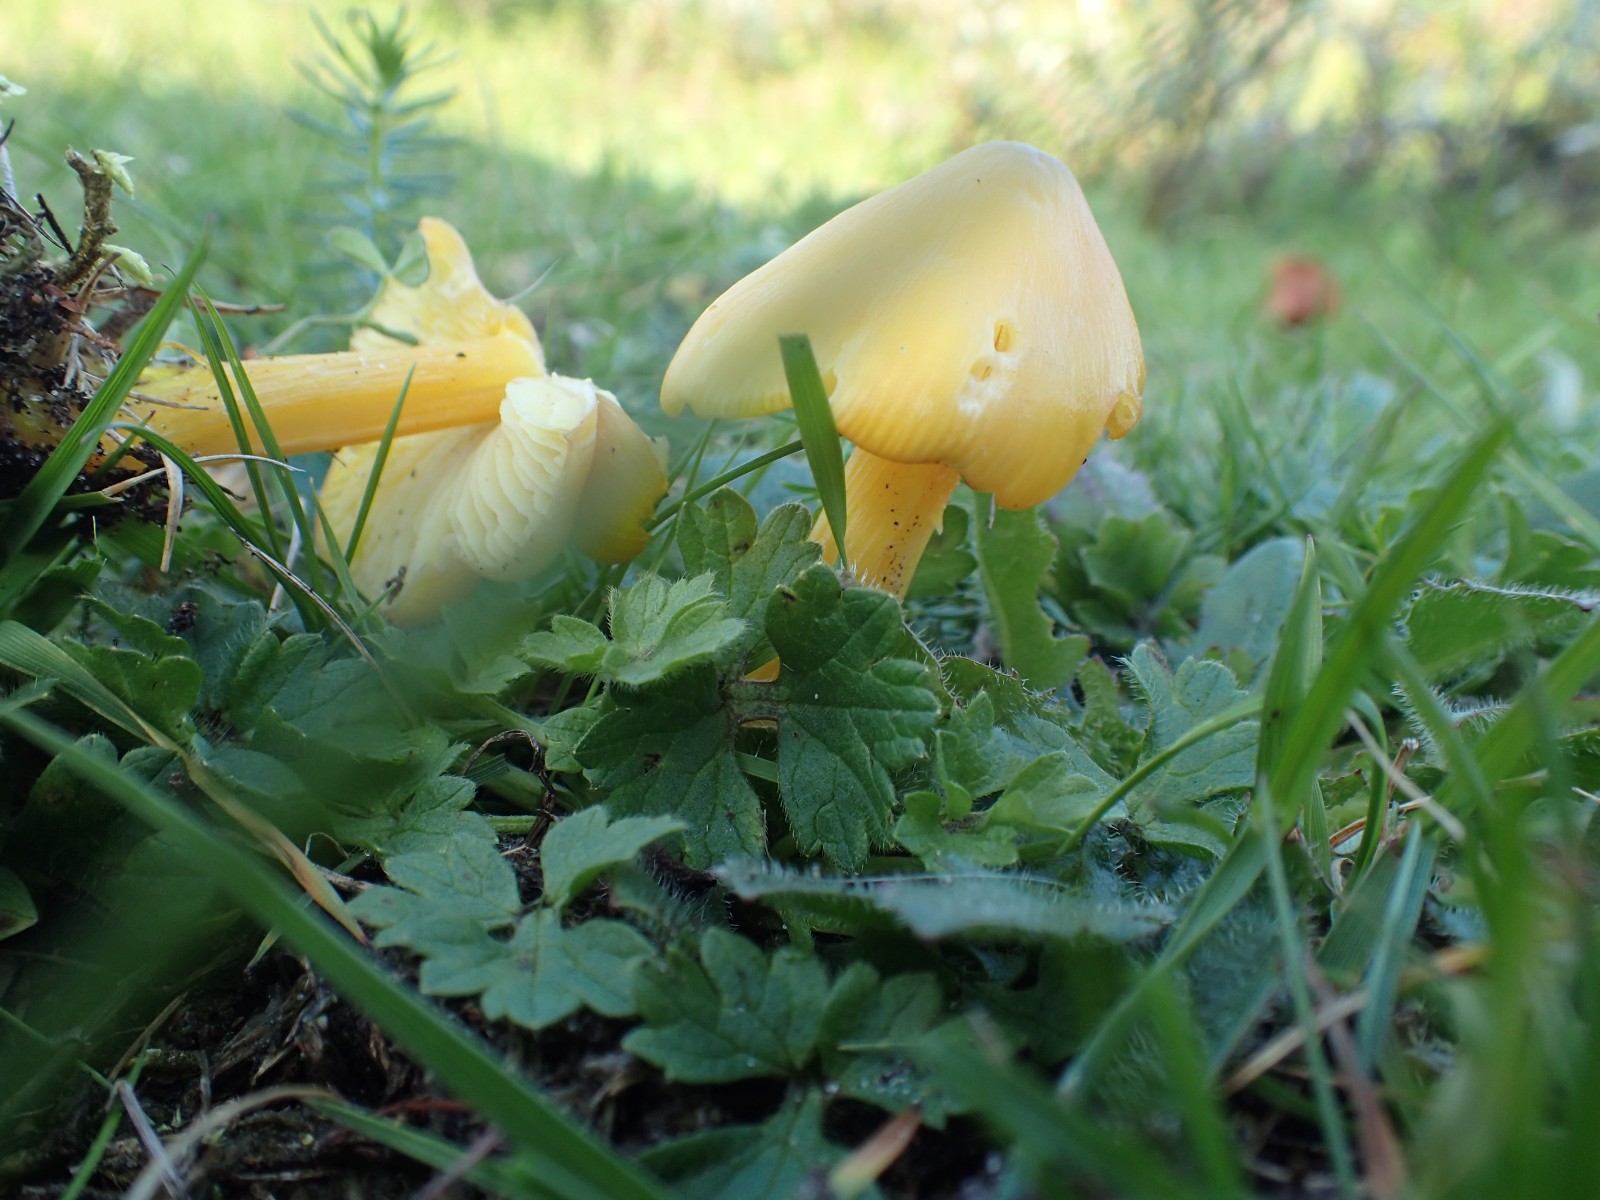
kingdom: Fungi
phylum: Basidiomycota
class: Agaricomycetes
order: Agaricales
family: Hygrophoraceae
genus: Hygrocybe
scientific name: Hygrocybe acutoconica
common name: spidspuklet vokshat
